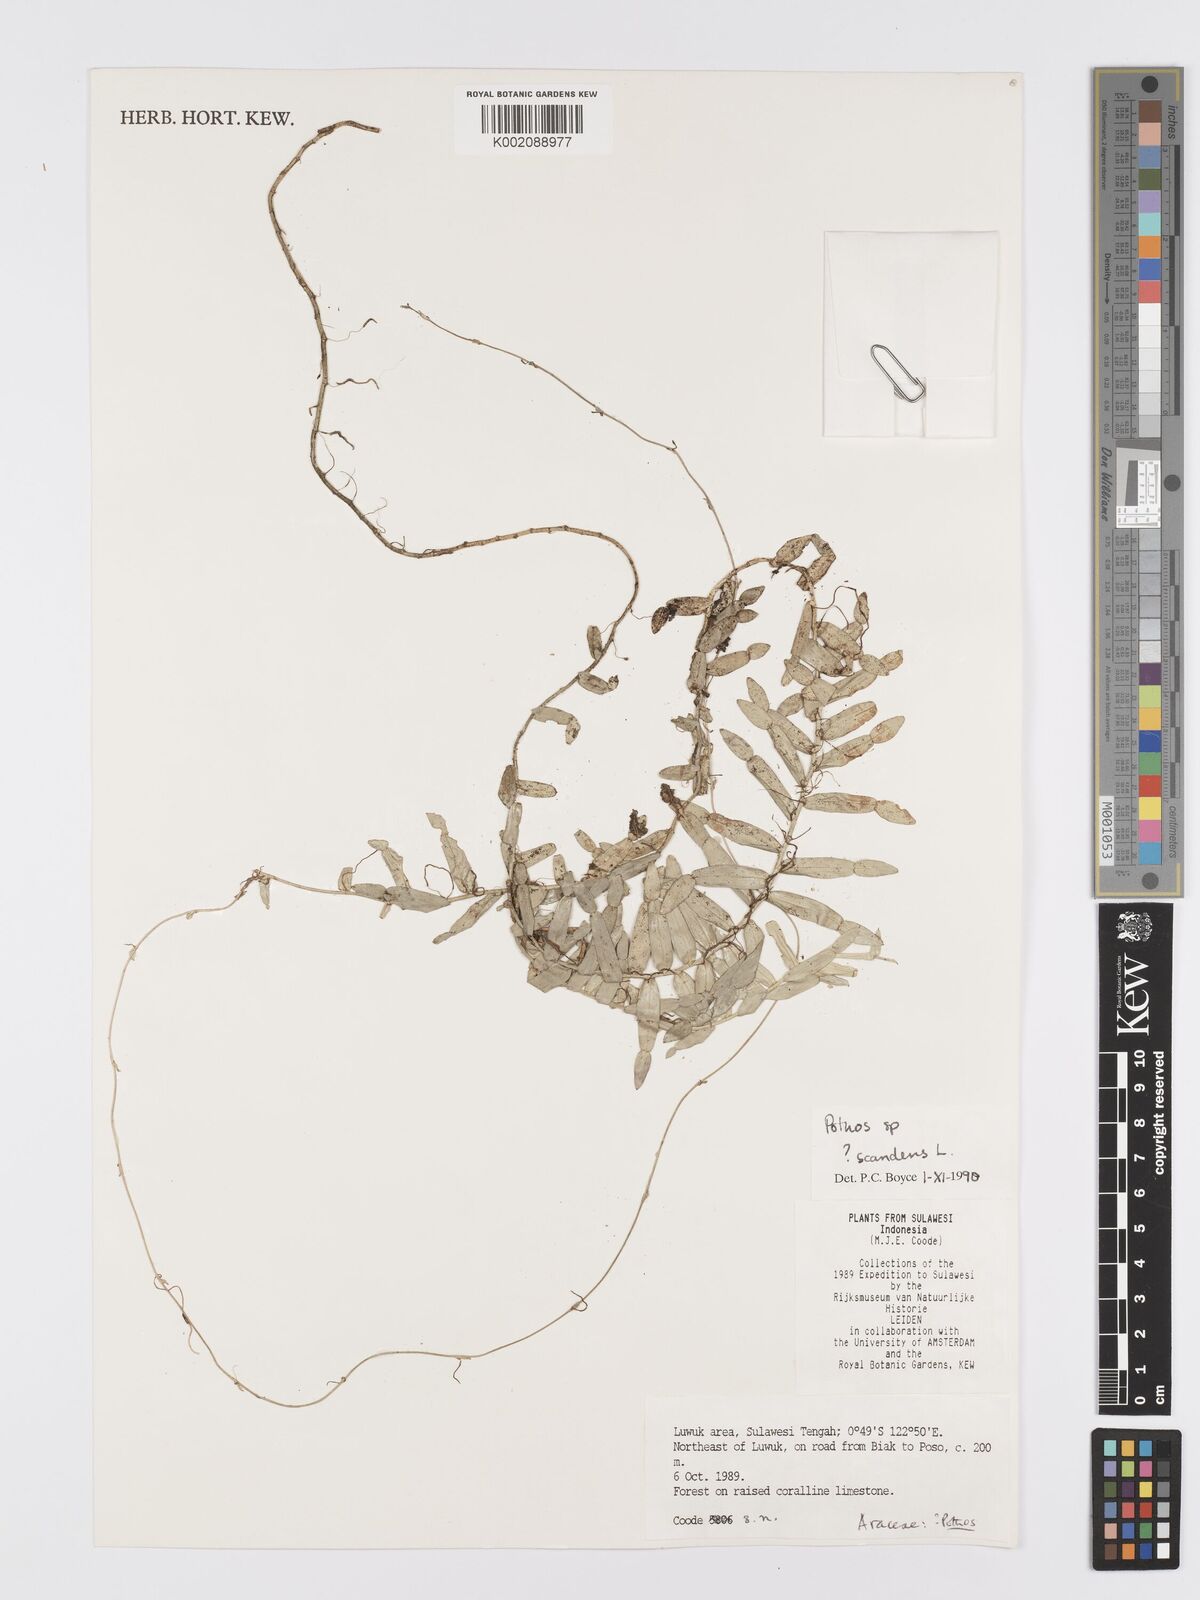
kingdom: Plantae
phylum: Tracheophyta
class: Liliopsida
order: Alismatales
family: Araceae
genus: Pothos
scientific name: Pothos
